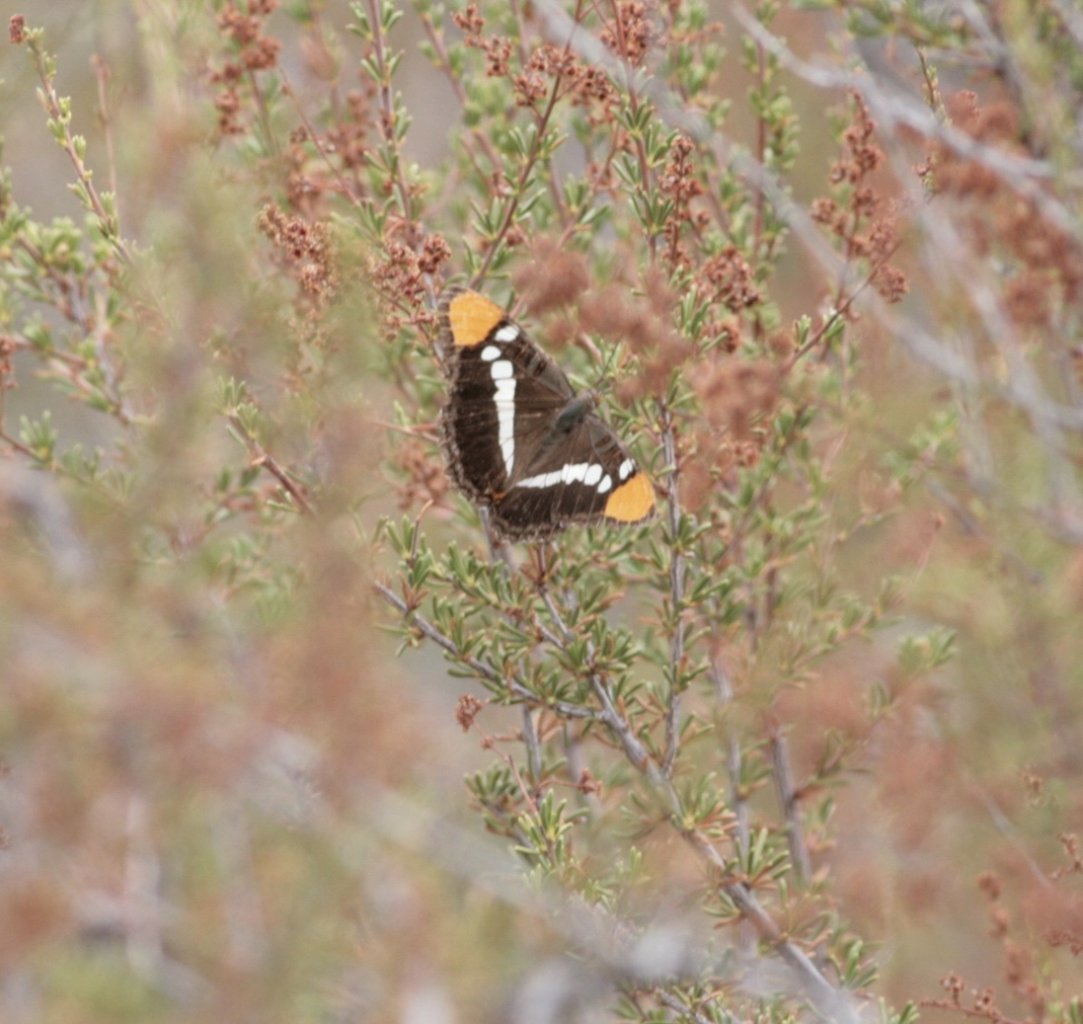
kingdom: Animalia
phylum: Arthropoda
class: Insecta
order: Lepidoptera
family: Nymphalidae
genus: Limenitis
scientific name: Limenitis bredowii
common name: California Sister
